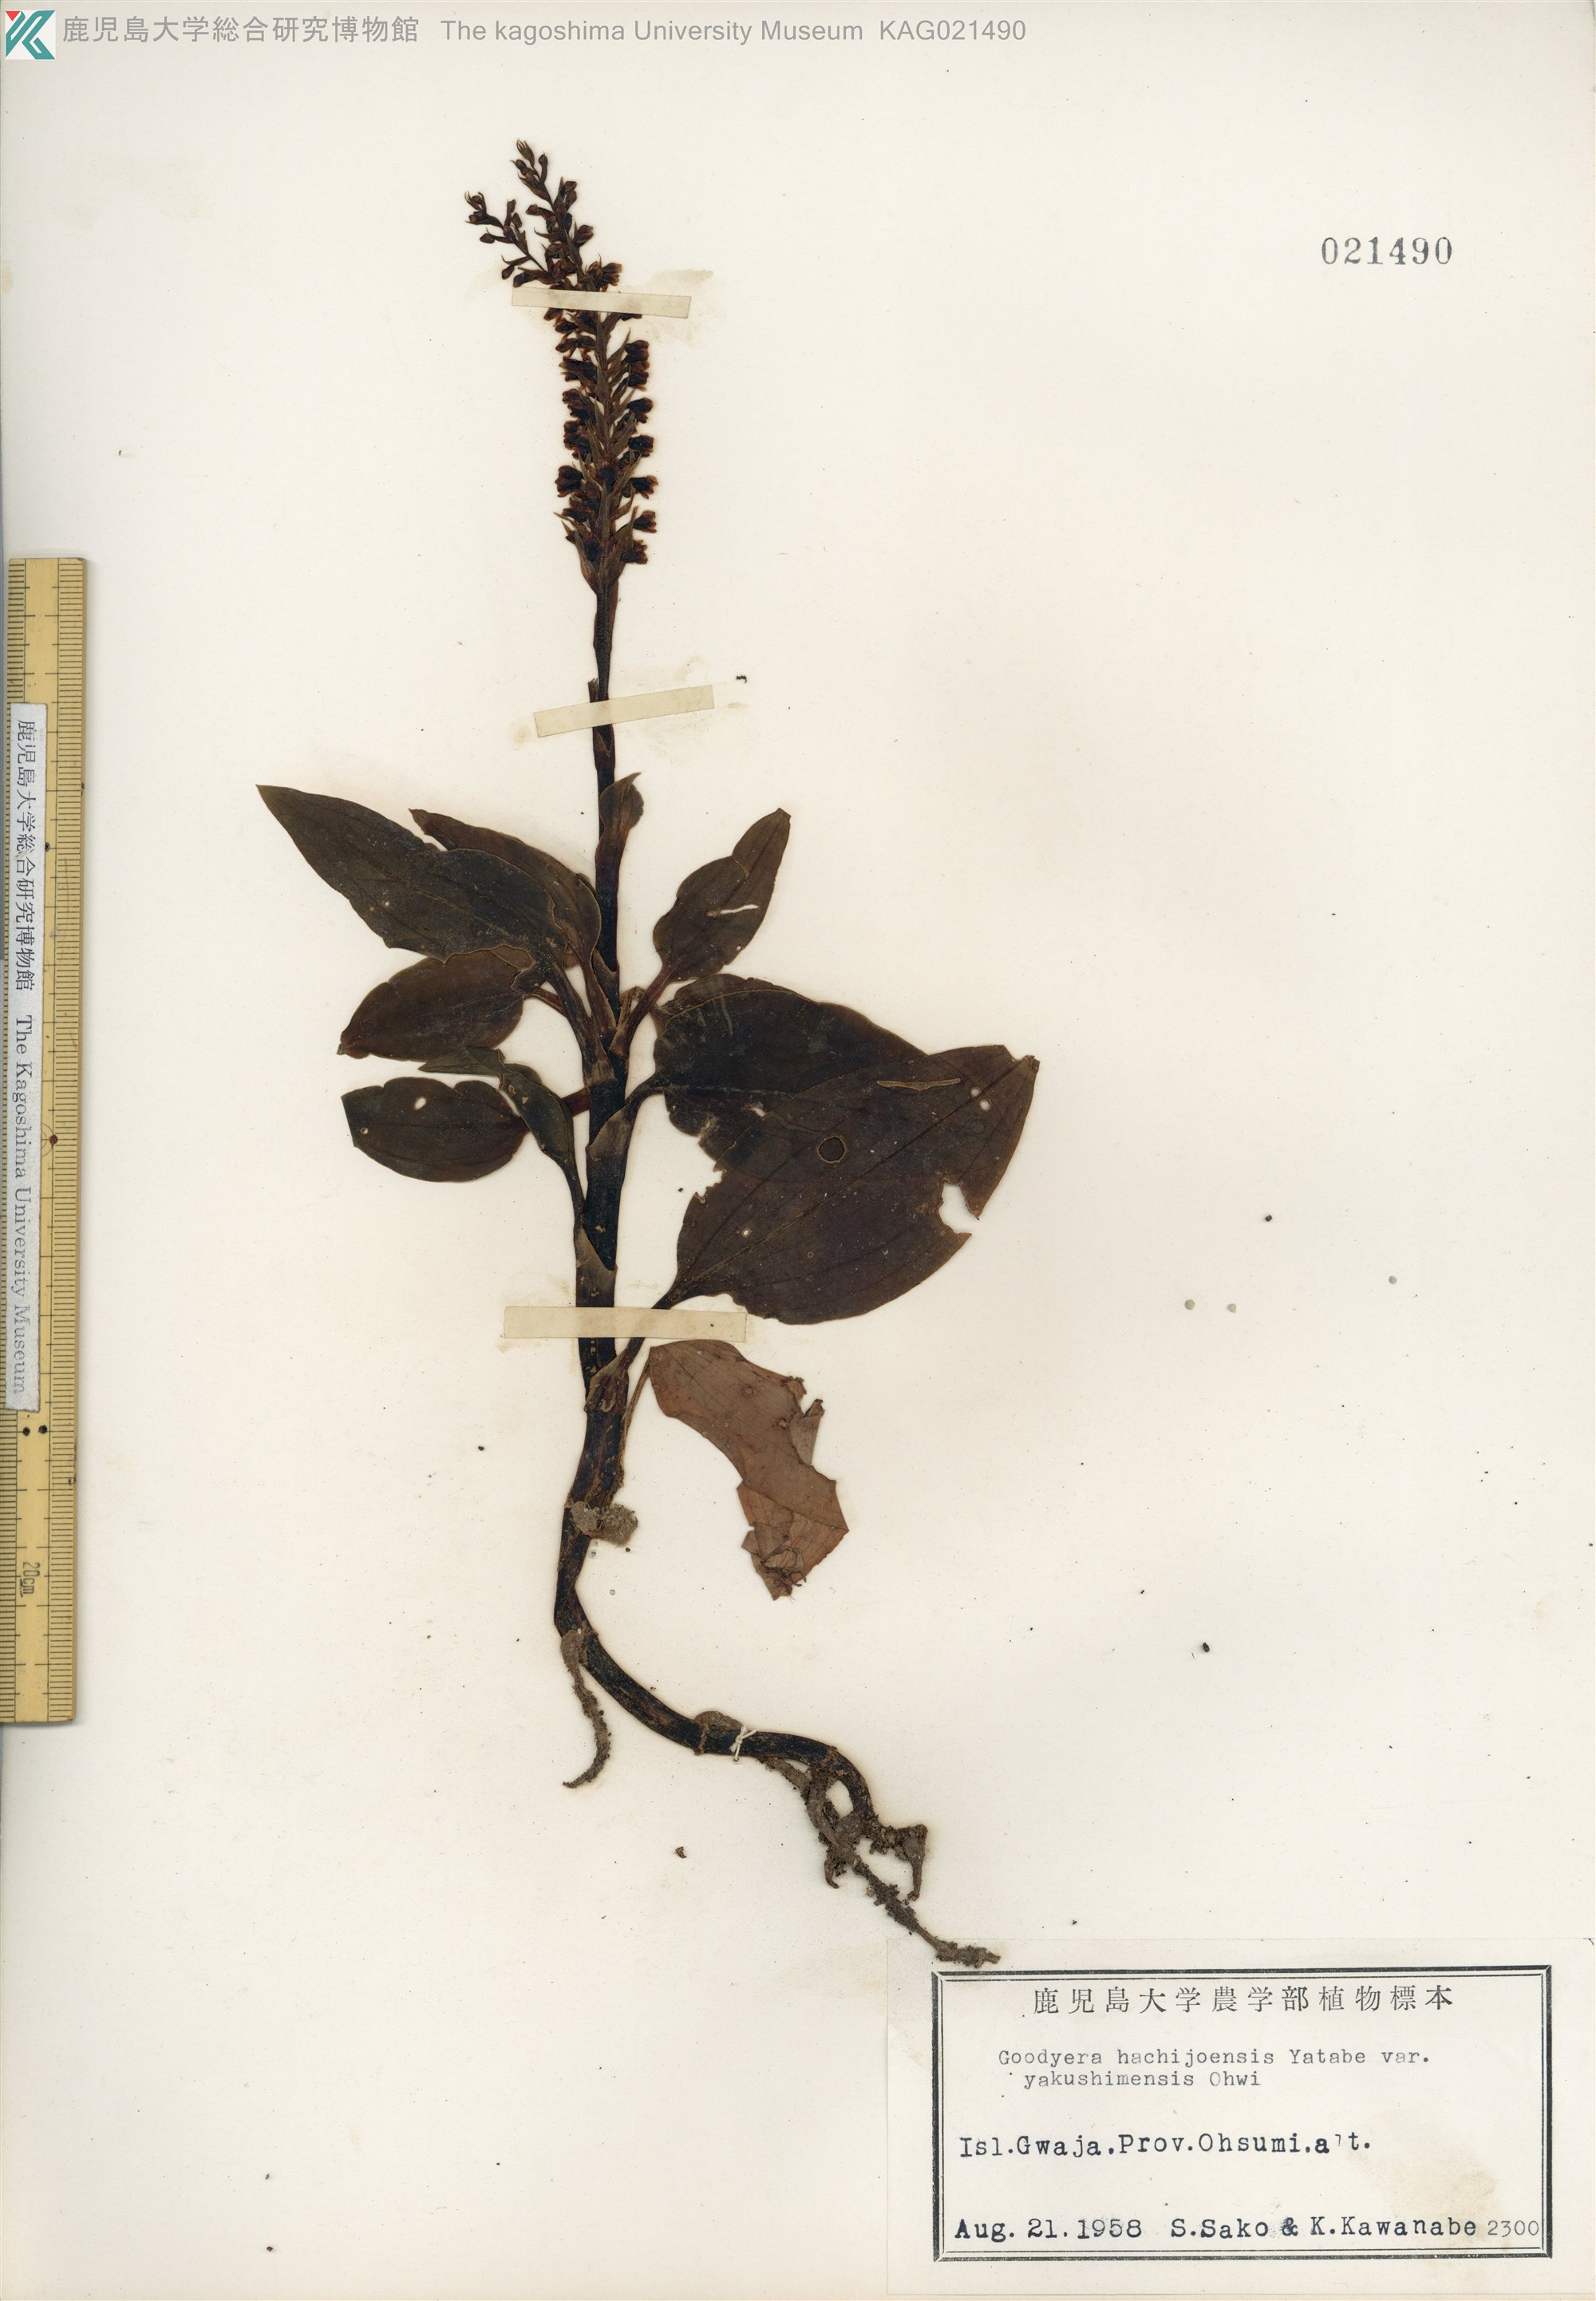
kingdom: Plantae
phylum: Tracheophyta
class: Liliopsida
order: Asparagales
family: Orchidaceae
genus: Goodyera
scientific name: Goodyera hachijoensis
